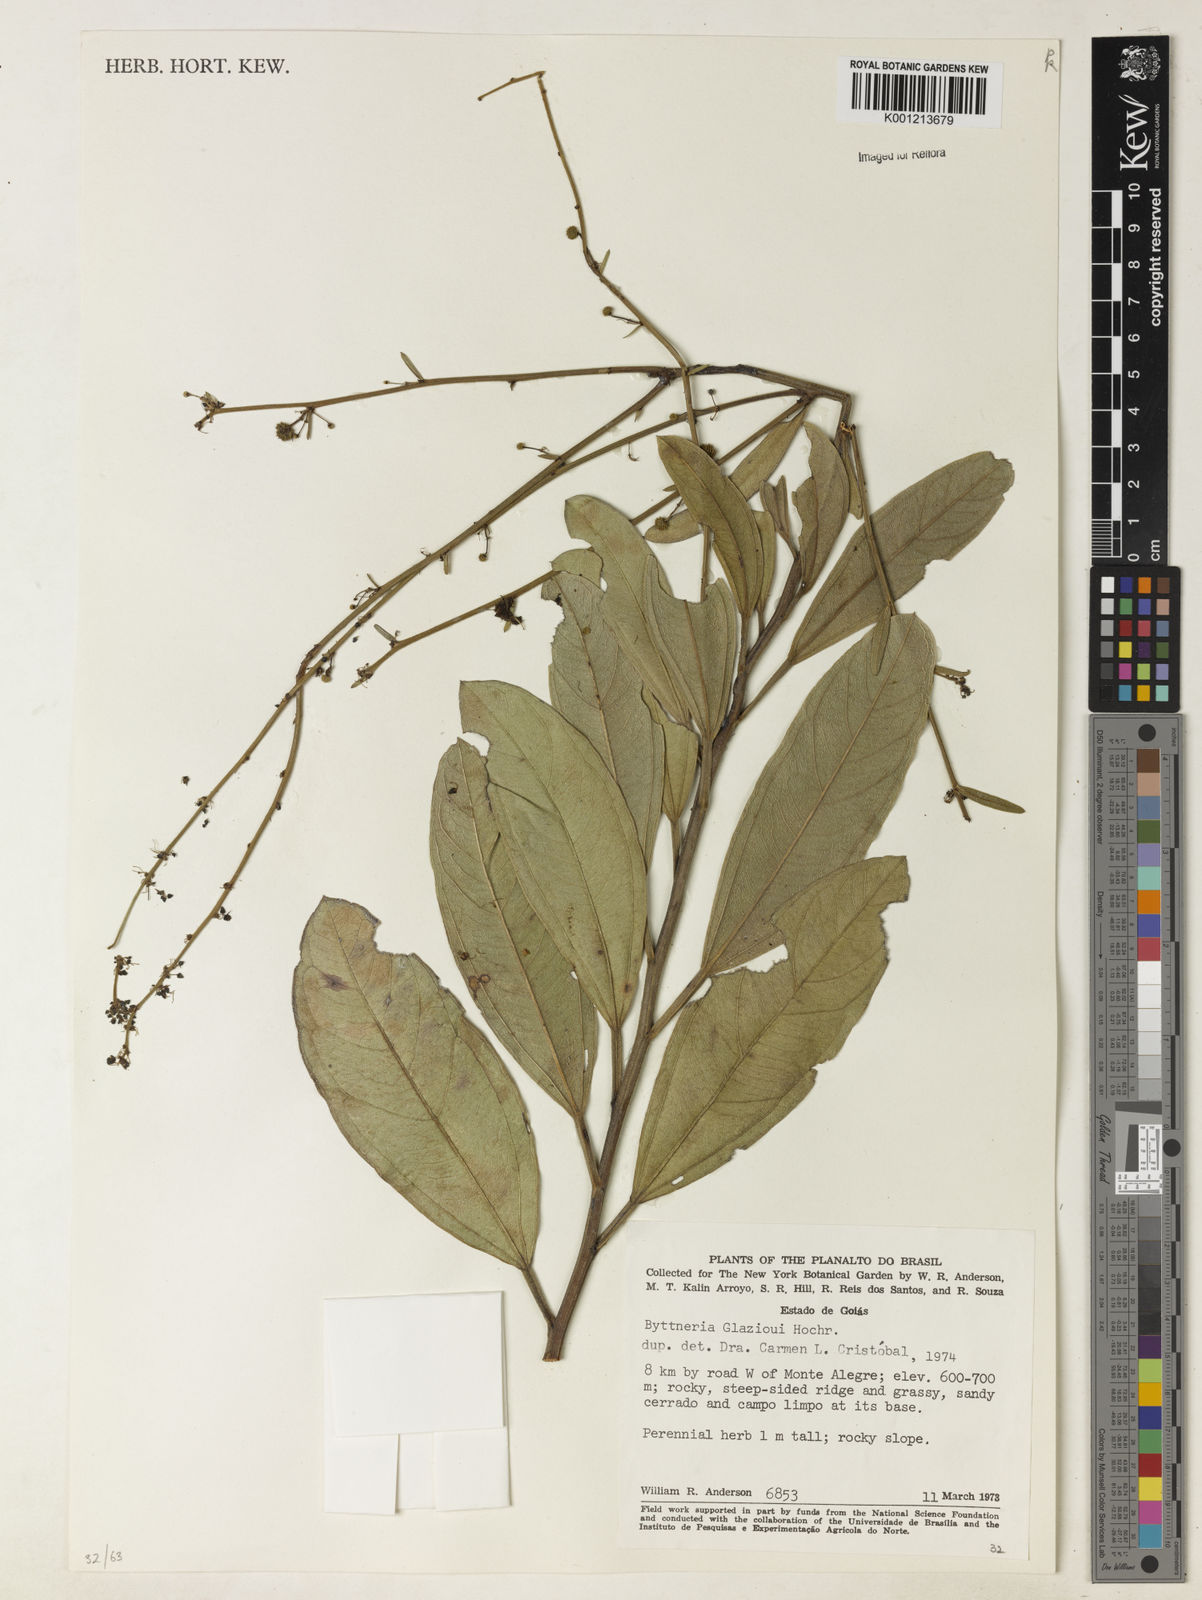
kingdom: Plantae
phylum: Tracheophyta
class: Magnoliopsida
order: Malvales
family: Malvaceae
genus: Byttneria
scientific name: Byttneria glazioui
